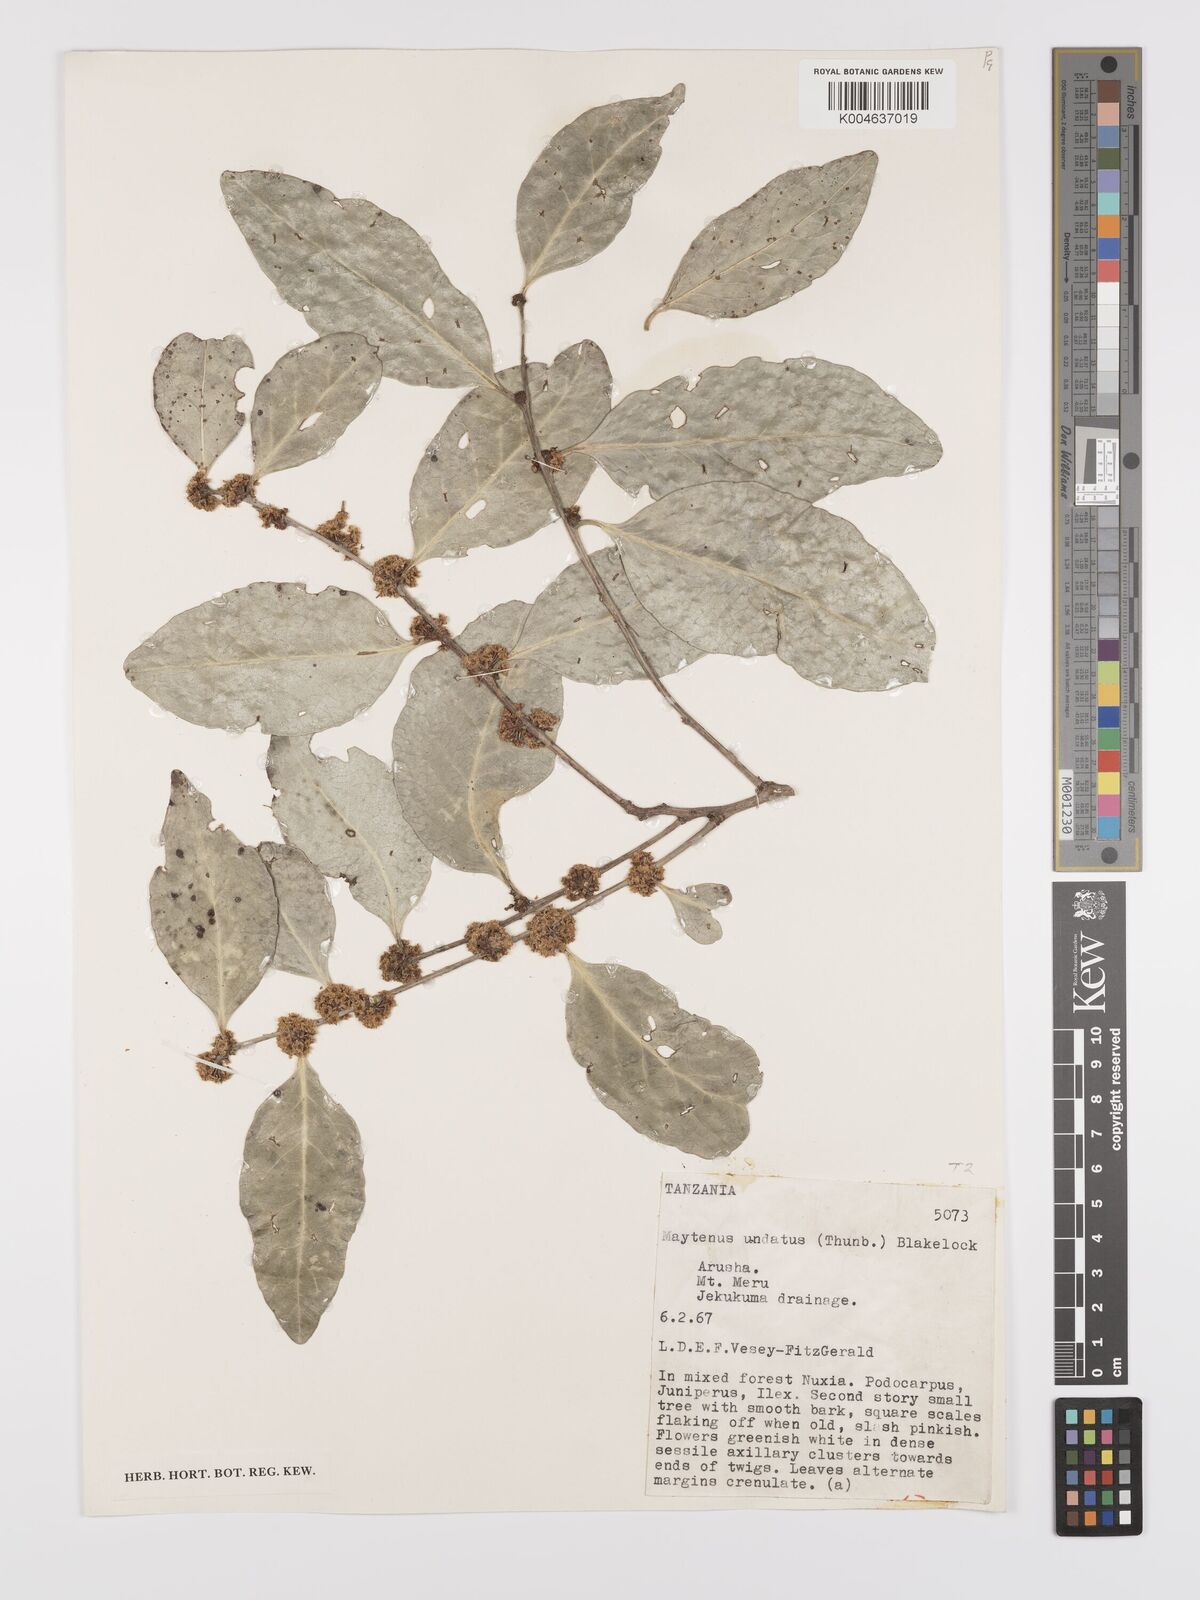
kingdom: Plantae
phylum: Tracheophyta
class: Magnoliopsida
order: Celastrales
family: Celastraceae
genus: Gymnosporia
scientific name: Gymnosporia undata
